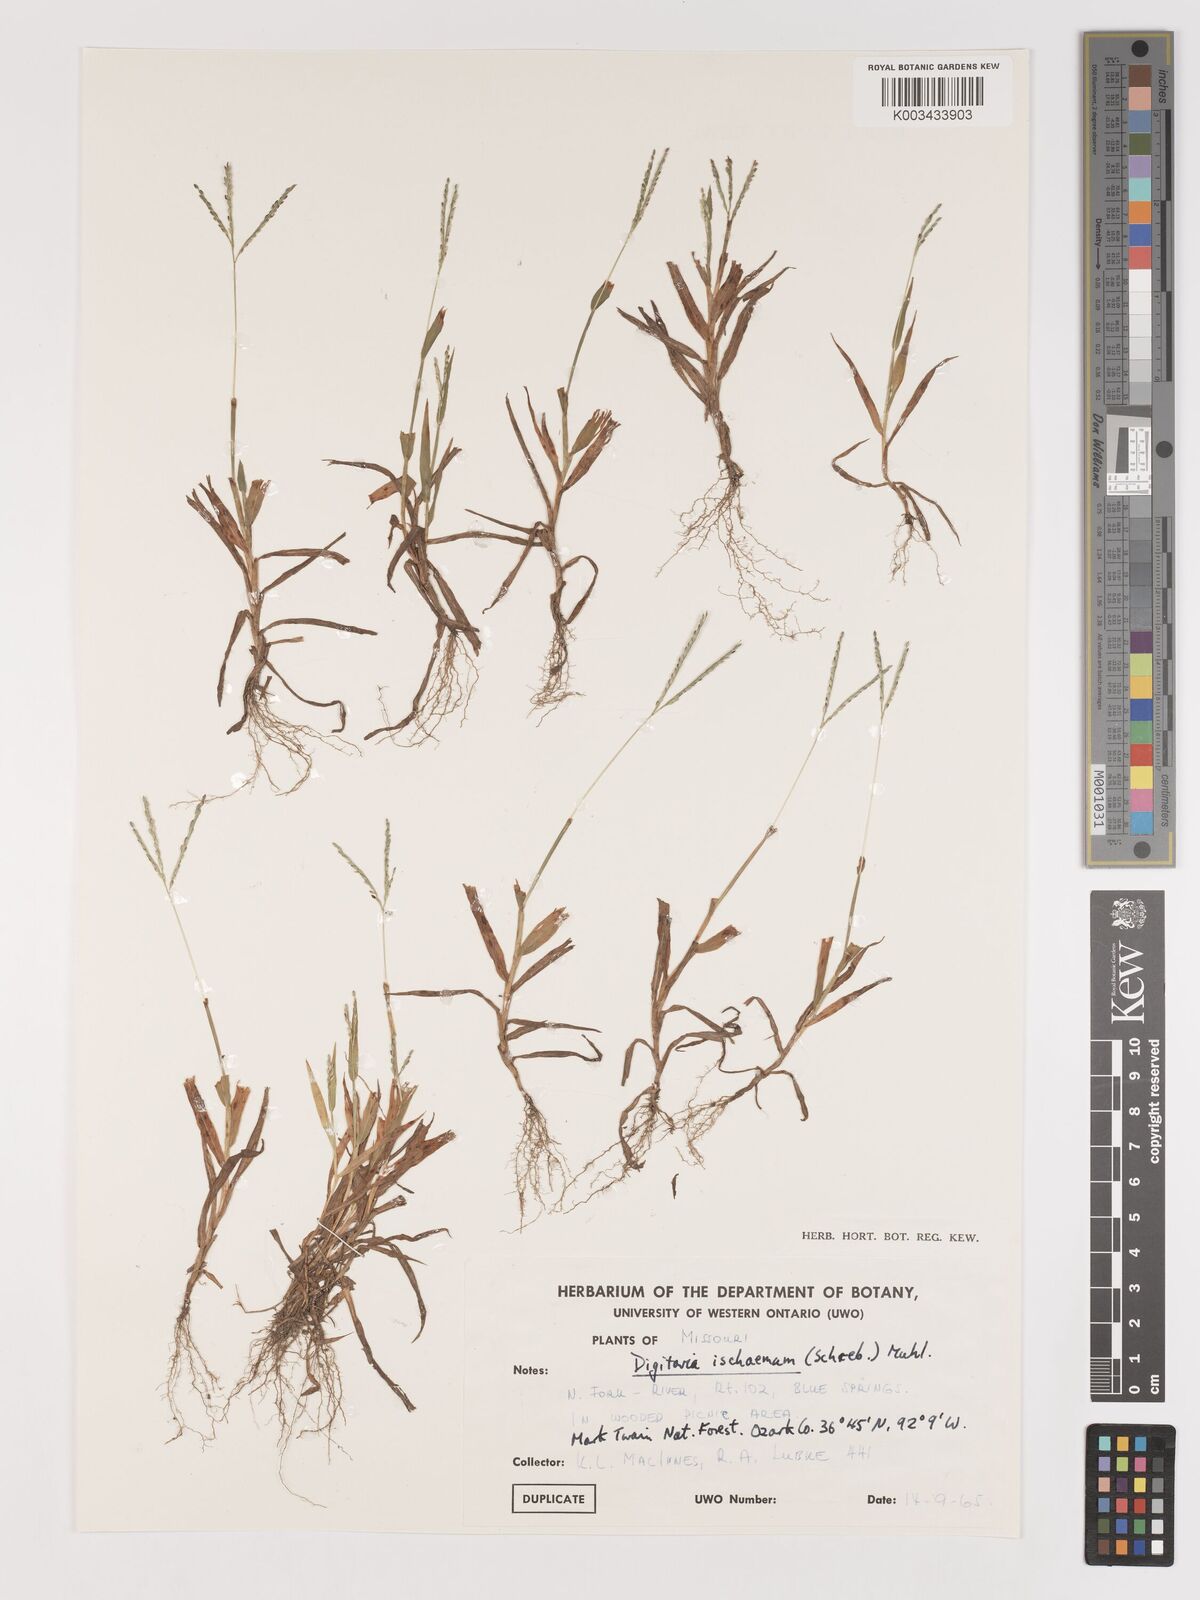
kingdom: Plantae
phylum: Tracheophyta
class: Liliopsida
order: Poales
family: Poaceae
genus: Digitaria
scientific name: Digitaria ischaemum
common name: Smooth crabgrass
